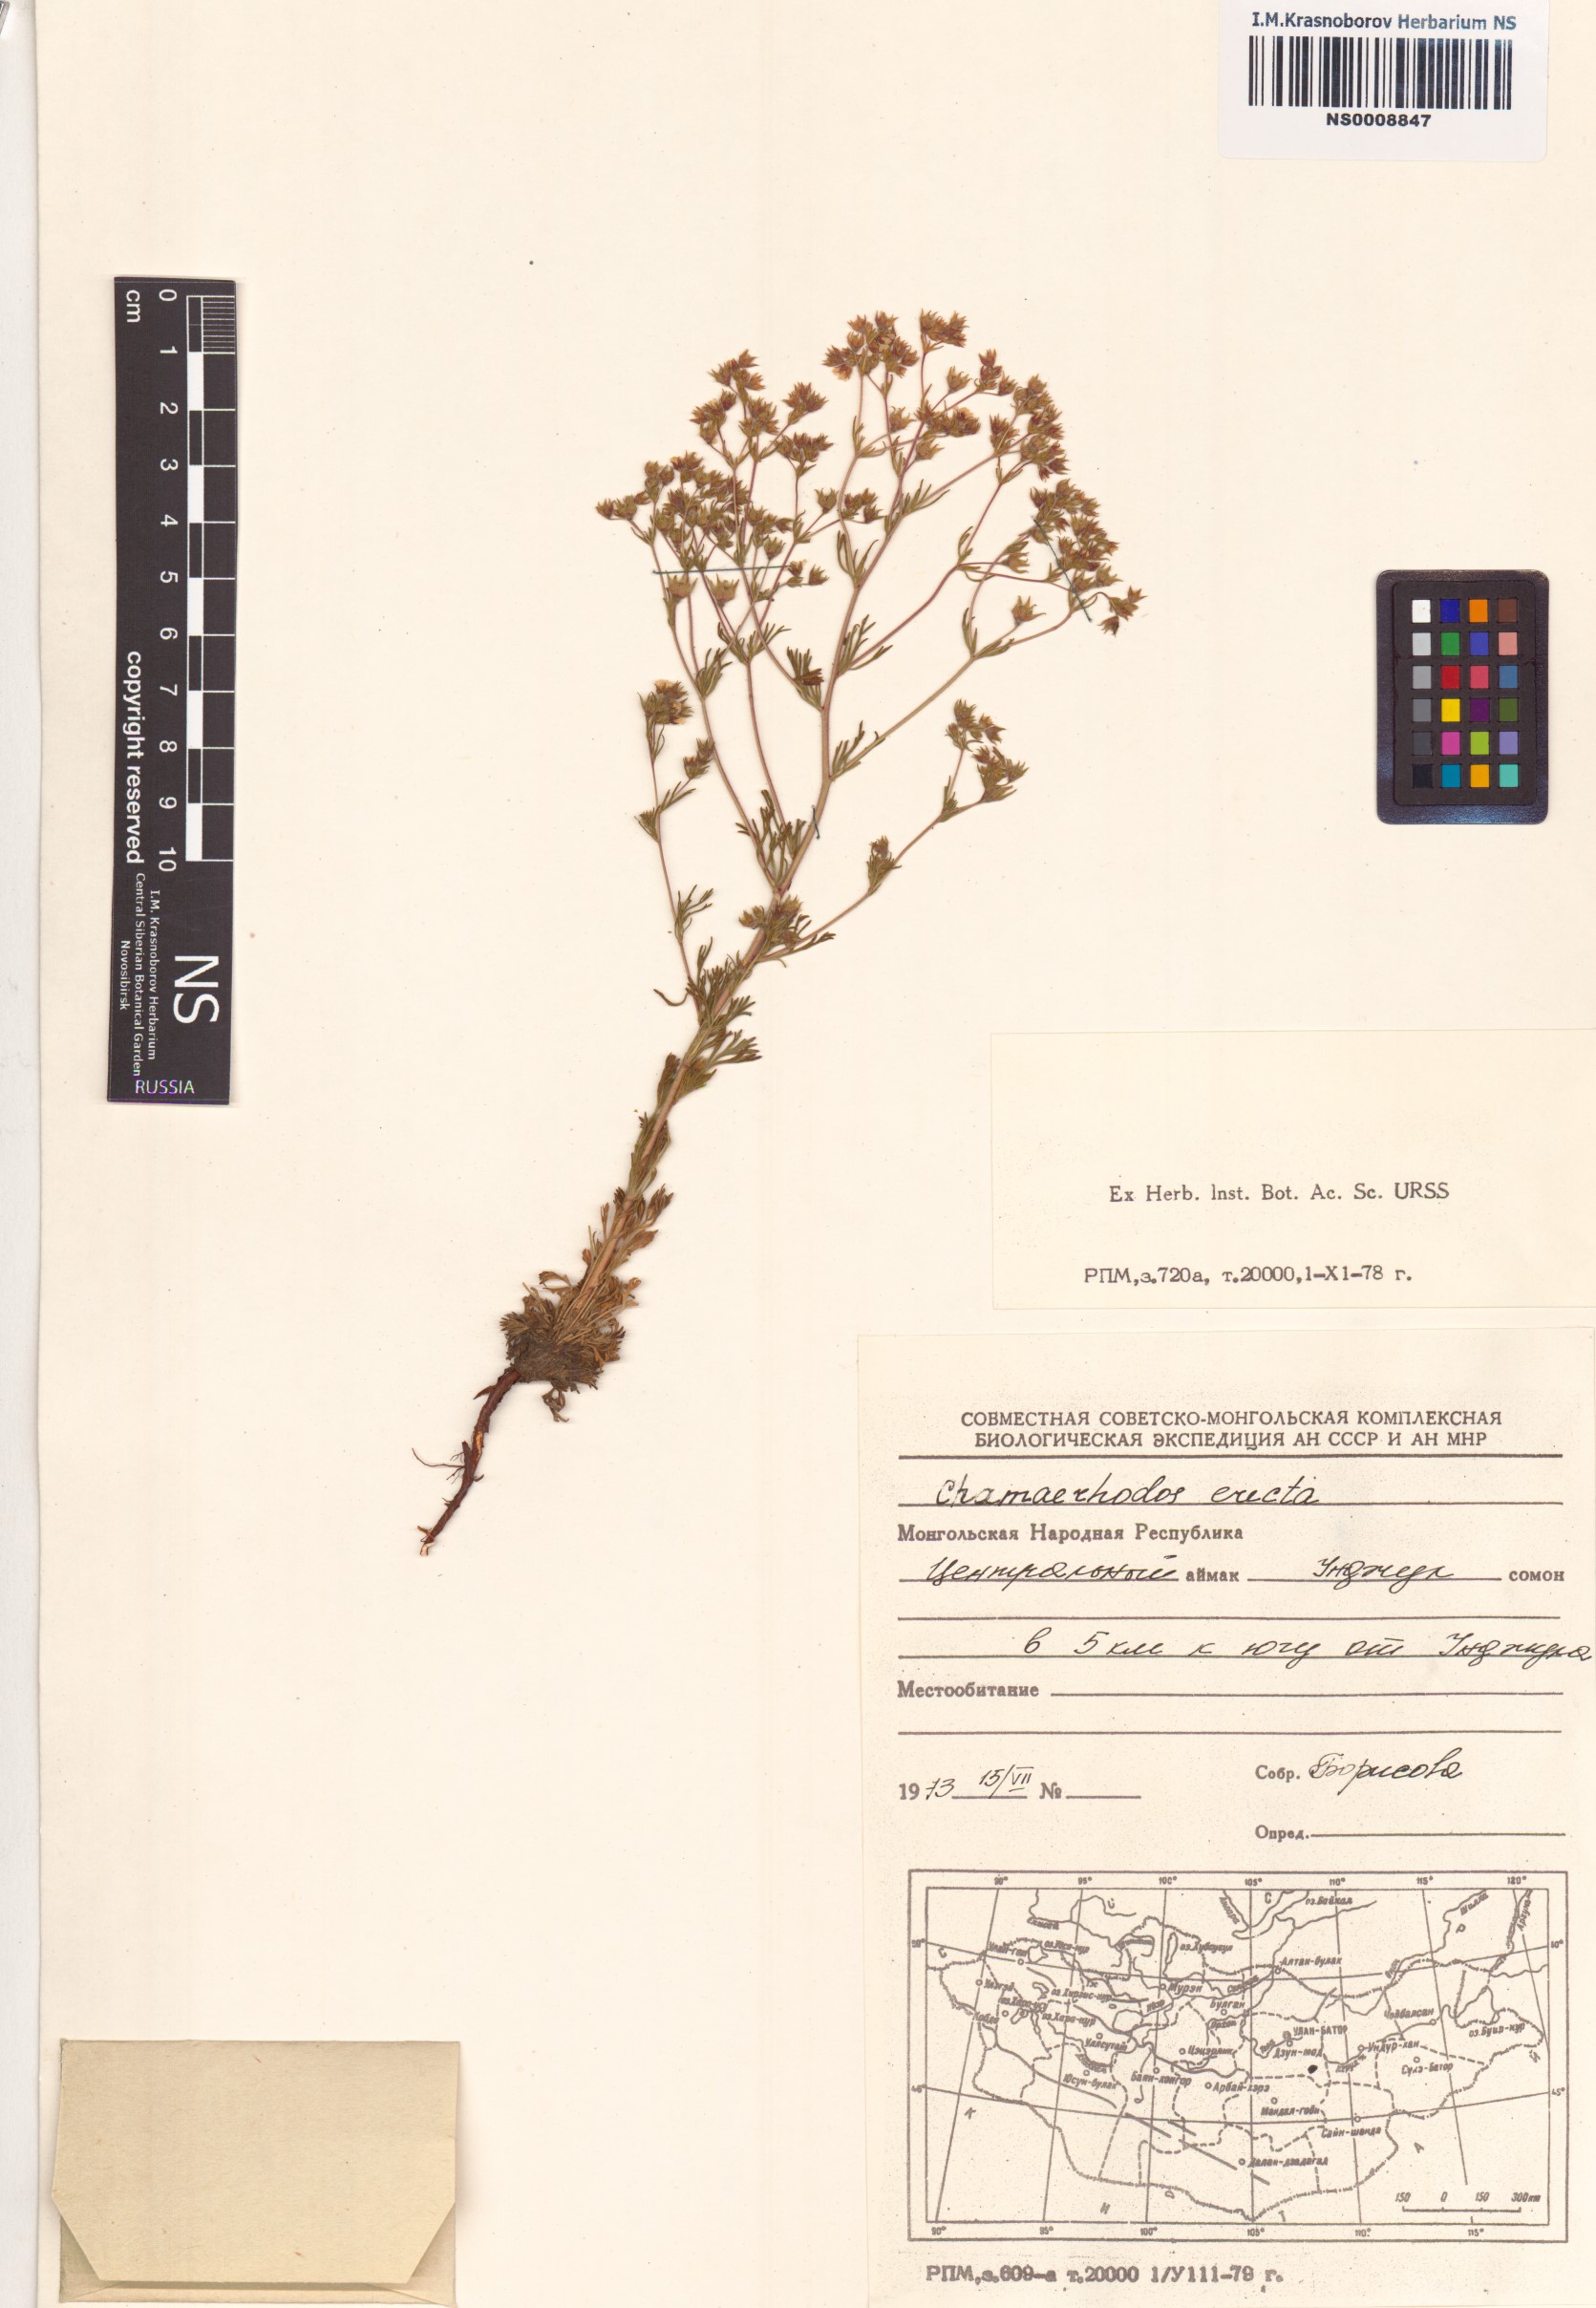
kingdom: Plantae
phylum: Tracheophyta
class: Magnoliopsida
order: Rosales
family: Rosaceae
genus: Chamaerhodos
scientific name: Chamaerhodos erecta
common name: American chamaerhodos
